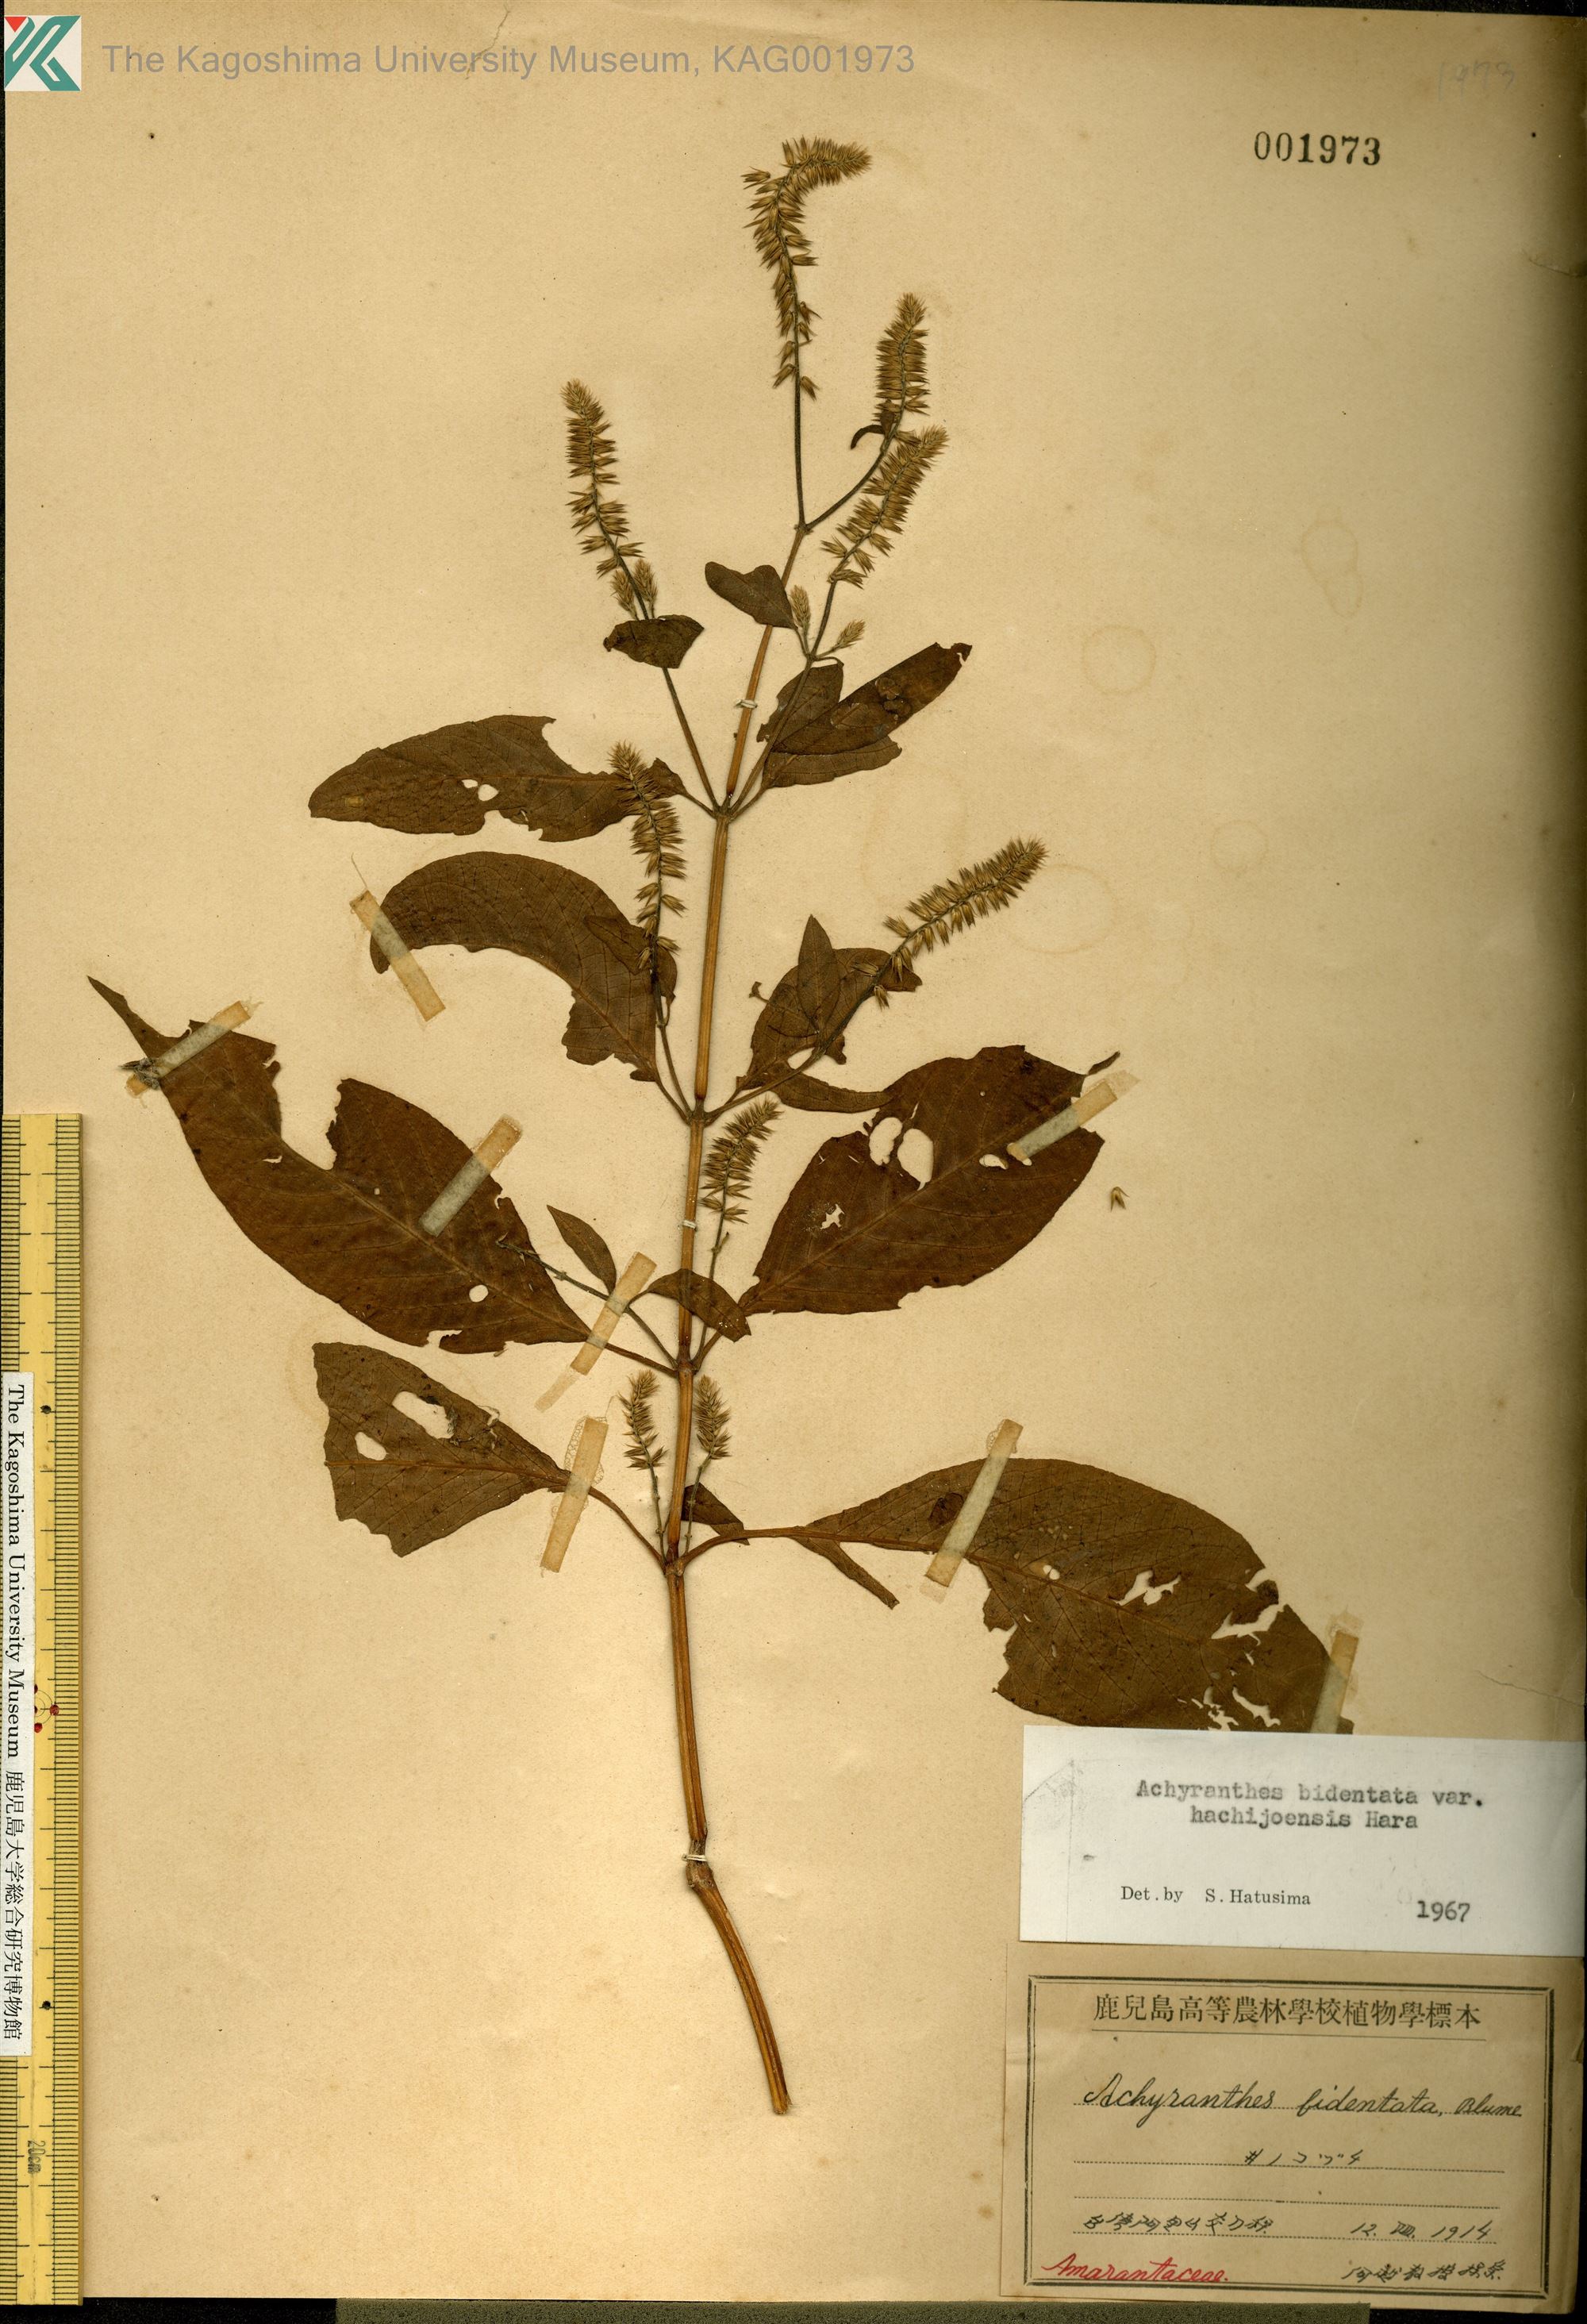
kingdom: Plantae
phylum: Tracheophyta
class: Magnoliopsida
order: Caryophyllales
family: Amaranthaceae
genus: Achyranthes
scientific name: Achyranthes bidentata
